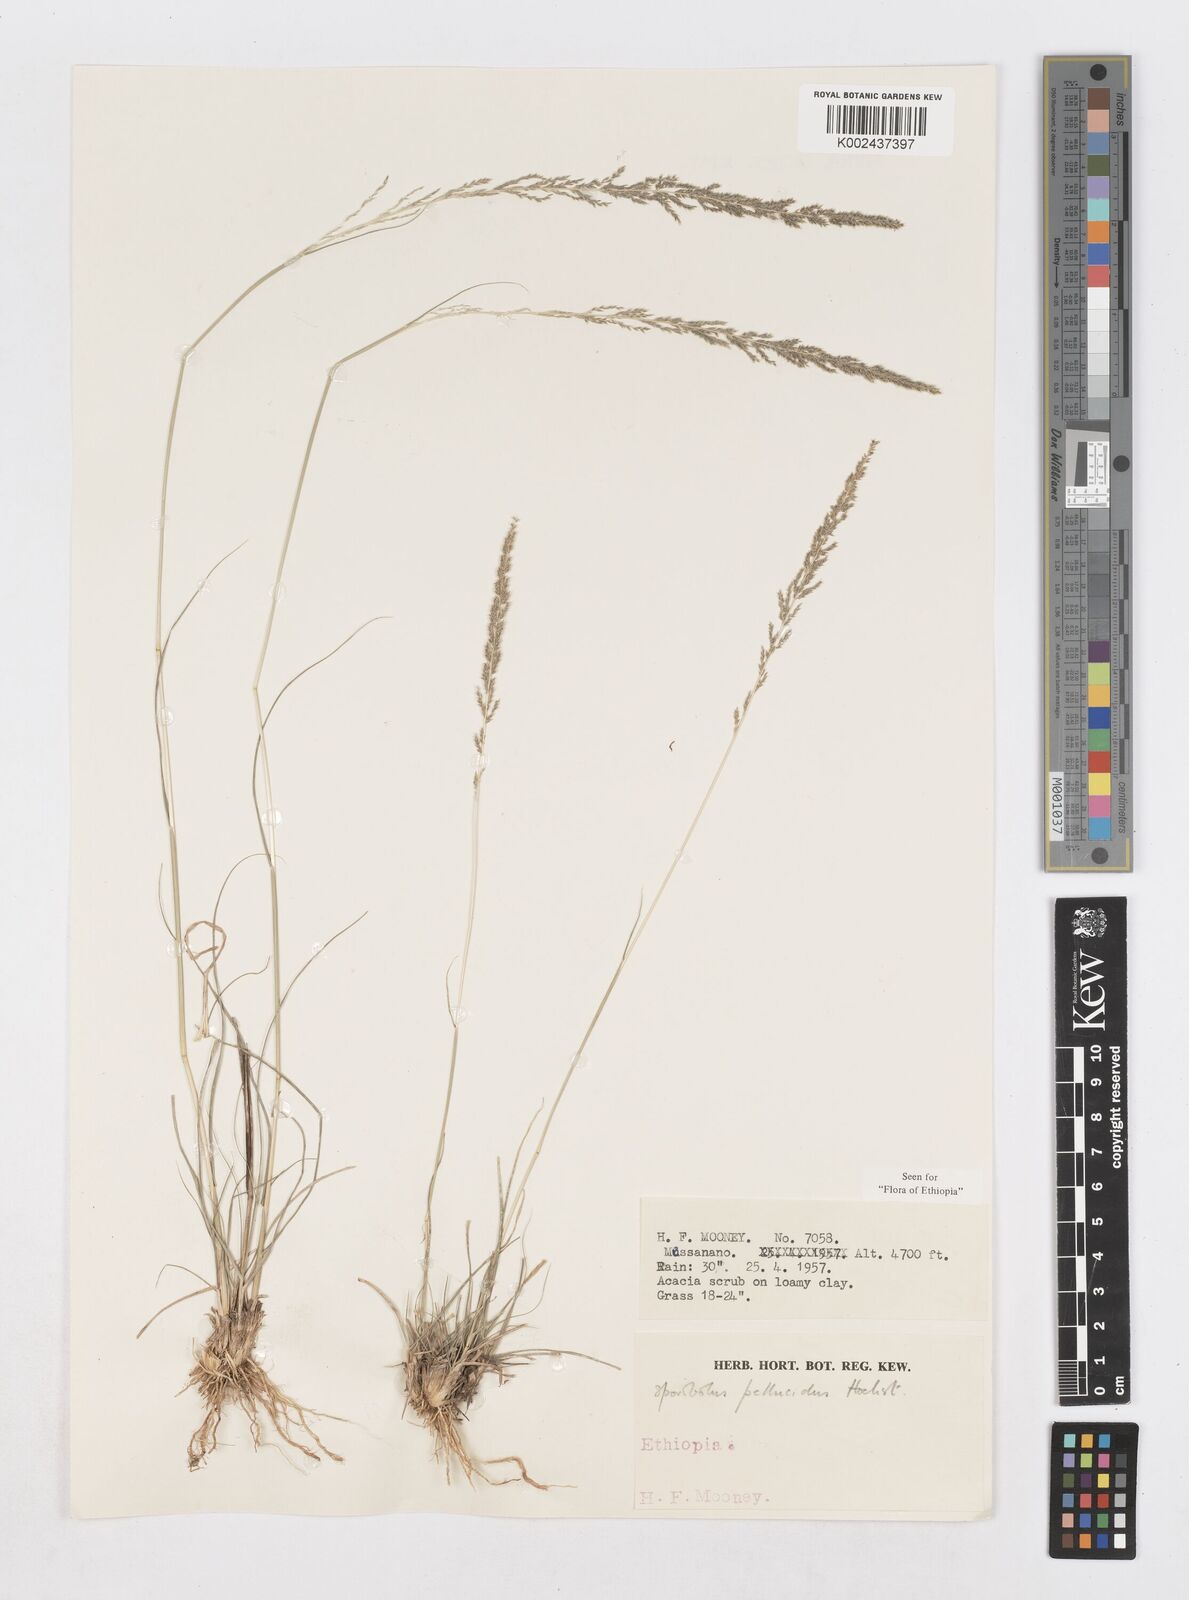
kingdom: Plantae
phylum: Tracheophyta
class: Liliopsida
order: Poales
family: Poaceae
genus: Sporobolus
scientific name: Sporobolus pellucidus
